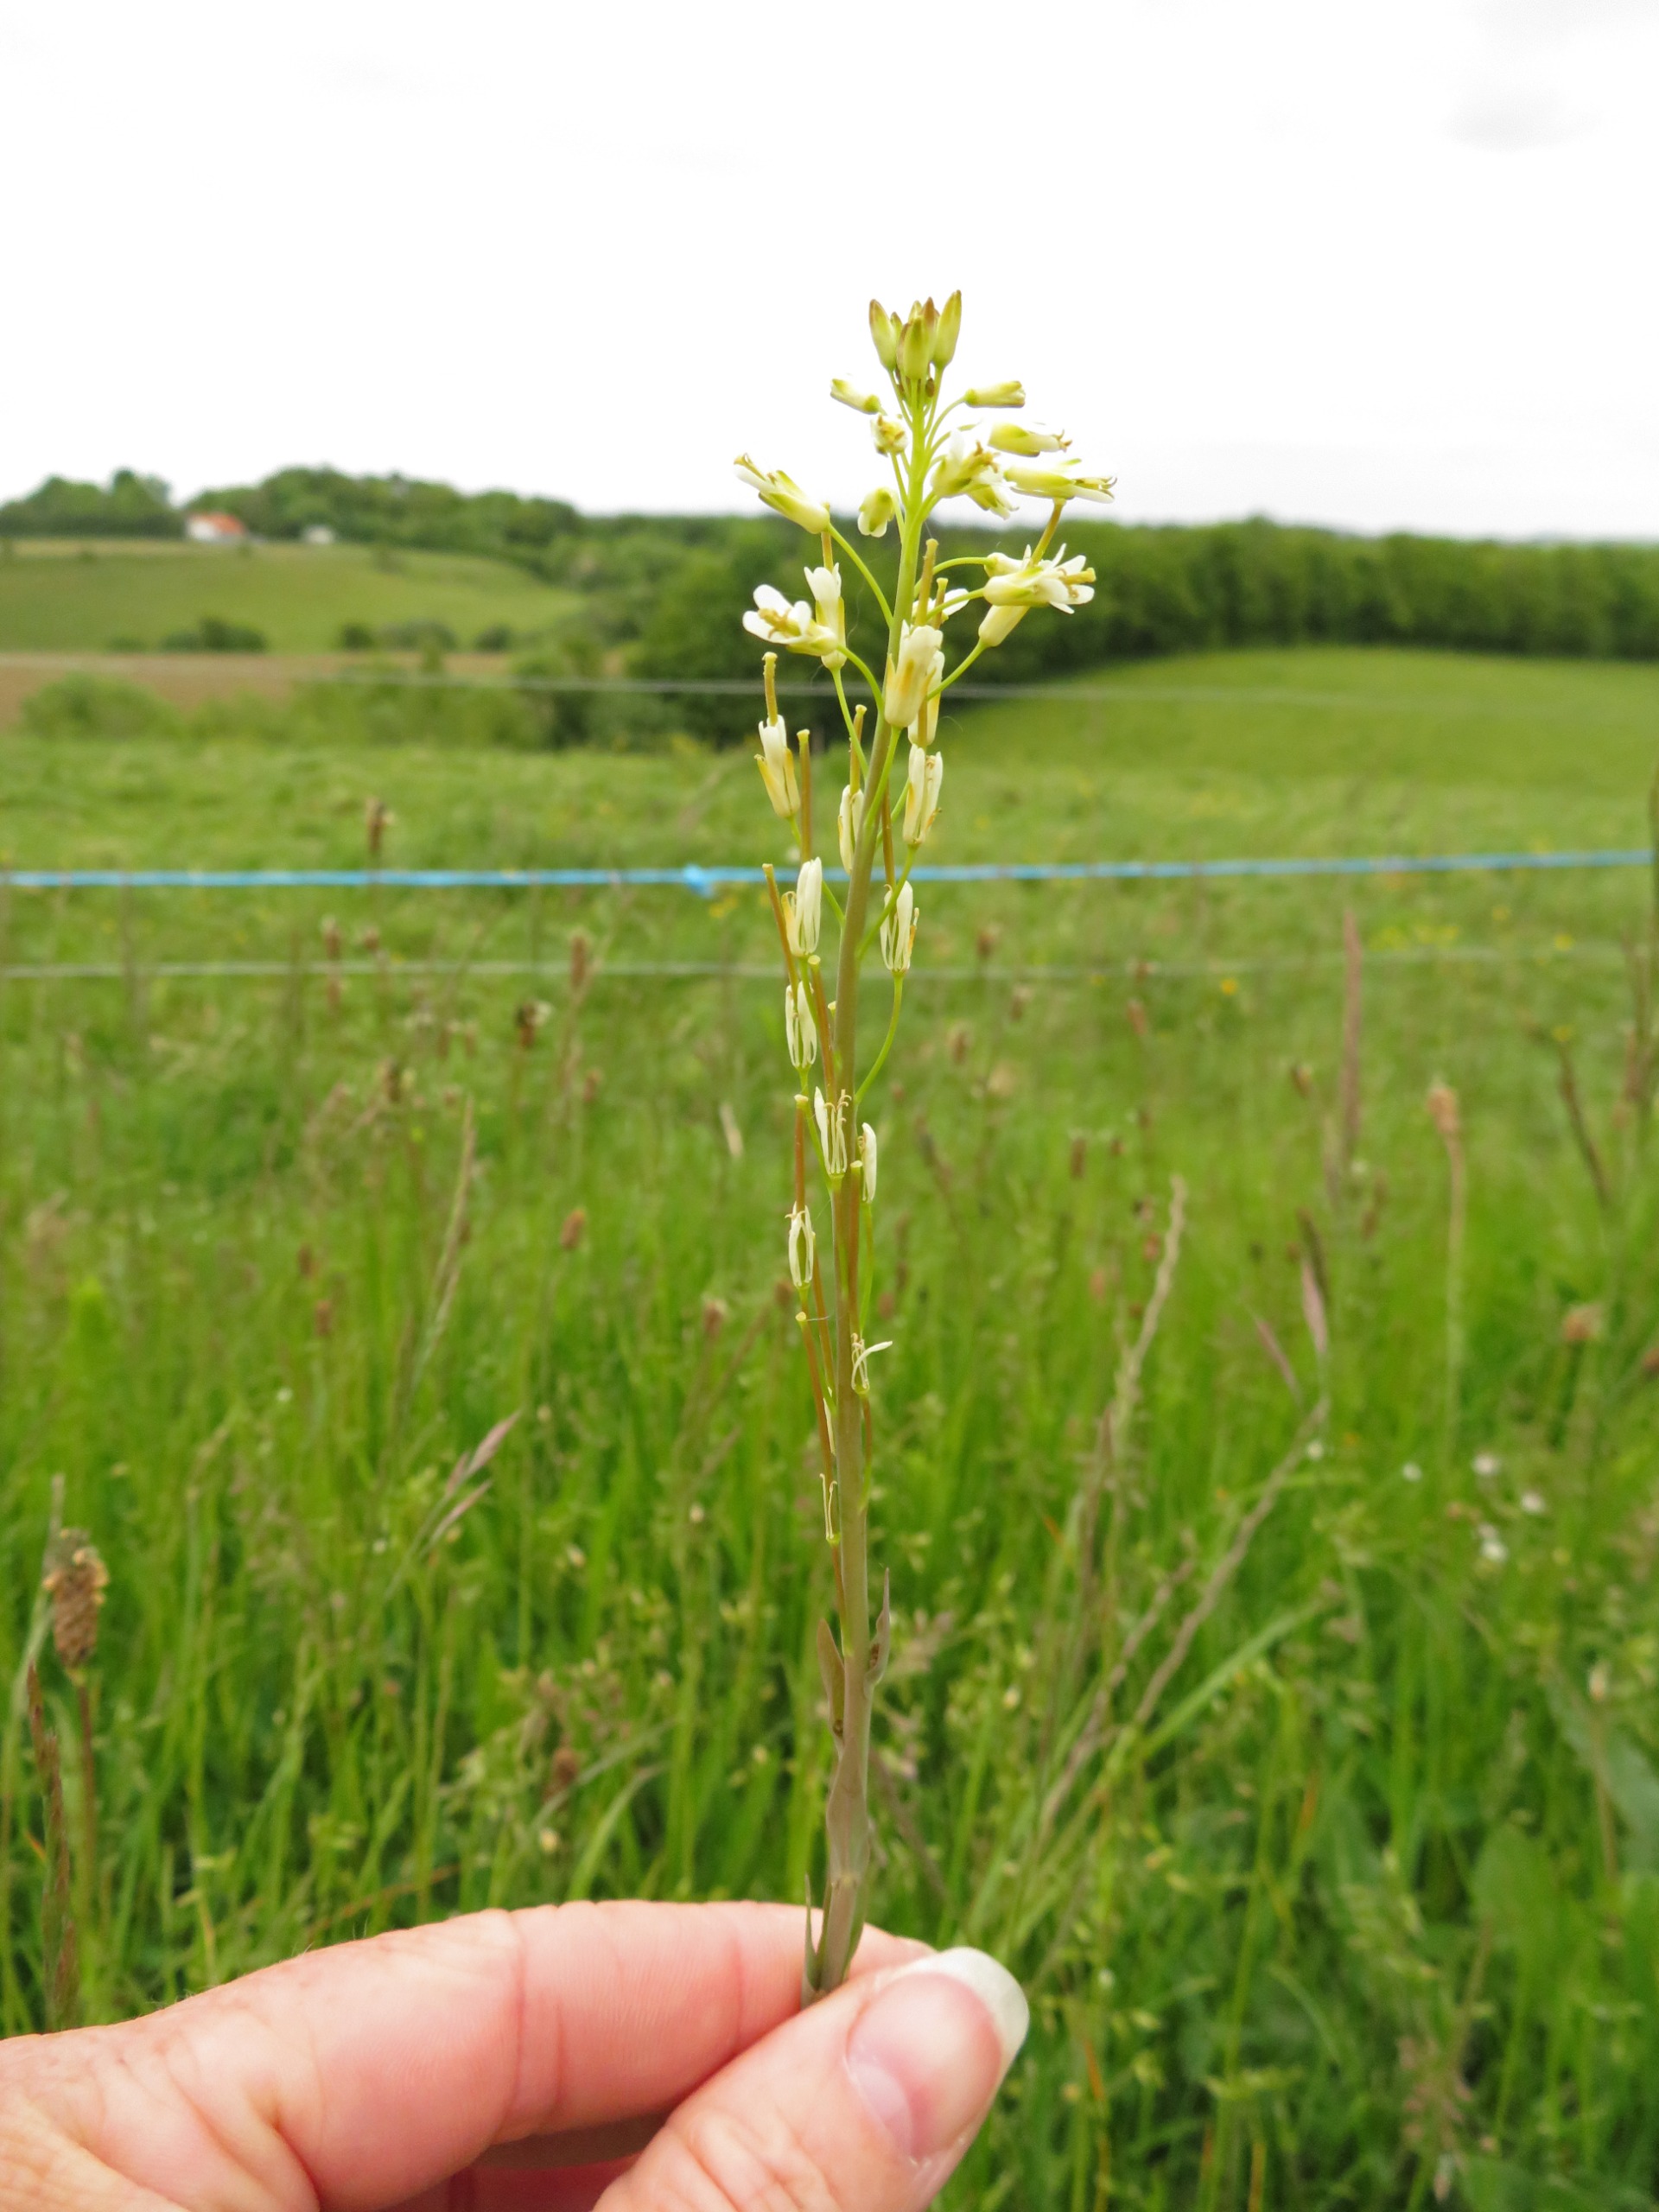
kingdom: Plantae
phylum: Tracheophyta
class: Magnoliopsida
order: Brassicales
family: Brassicaceae
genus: Turritis
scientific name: Turritis glabra
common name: Tårnurt
